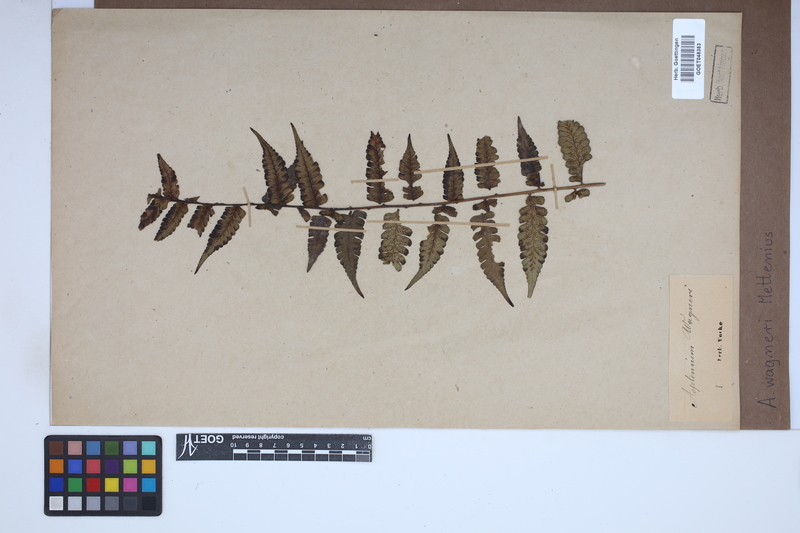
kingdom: Plantae
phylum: Tracheophyta
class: Polypodiopsida
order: Polypodiales
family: Aspleniaceae
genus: Asplenium
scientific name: Asplenium monanthes
